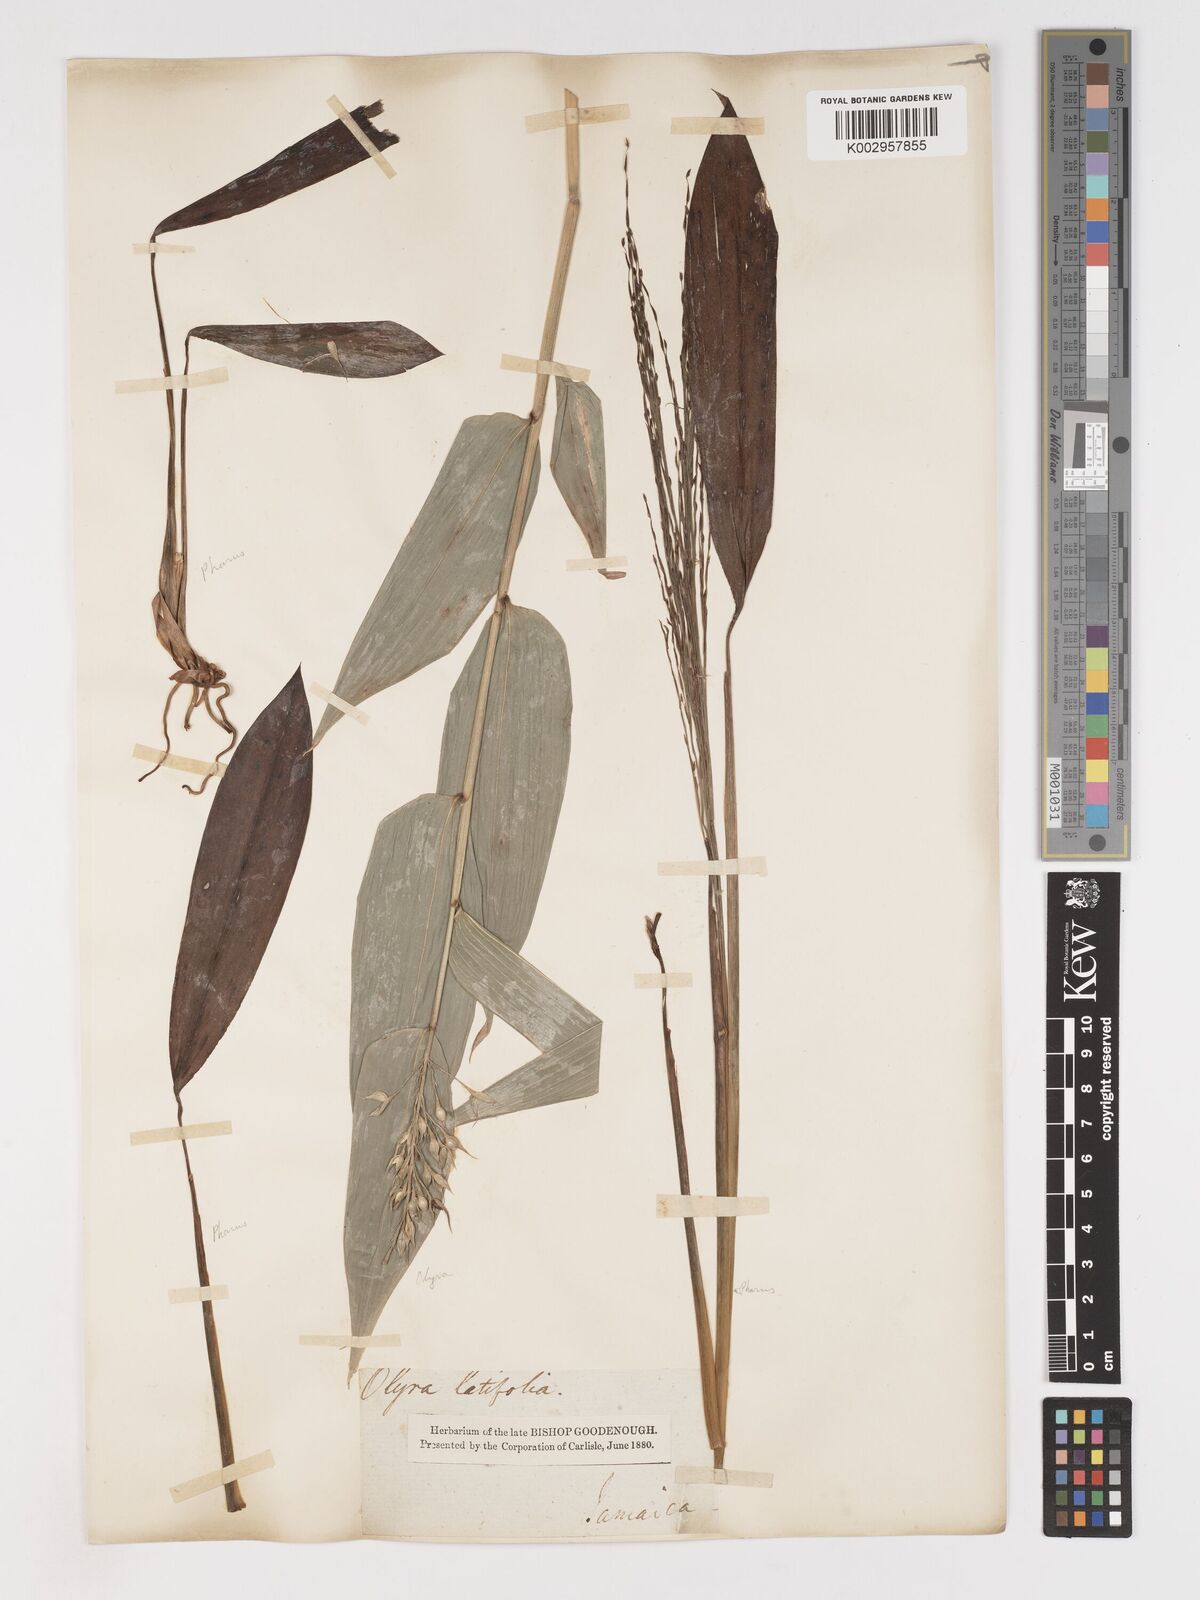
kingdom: Plantae
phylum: Tracheophyta
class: Liliopsida
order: Poales
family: Poaceae
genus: Olyra
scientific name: Olyra latifolia
